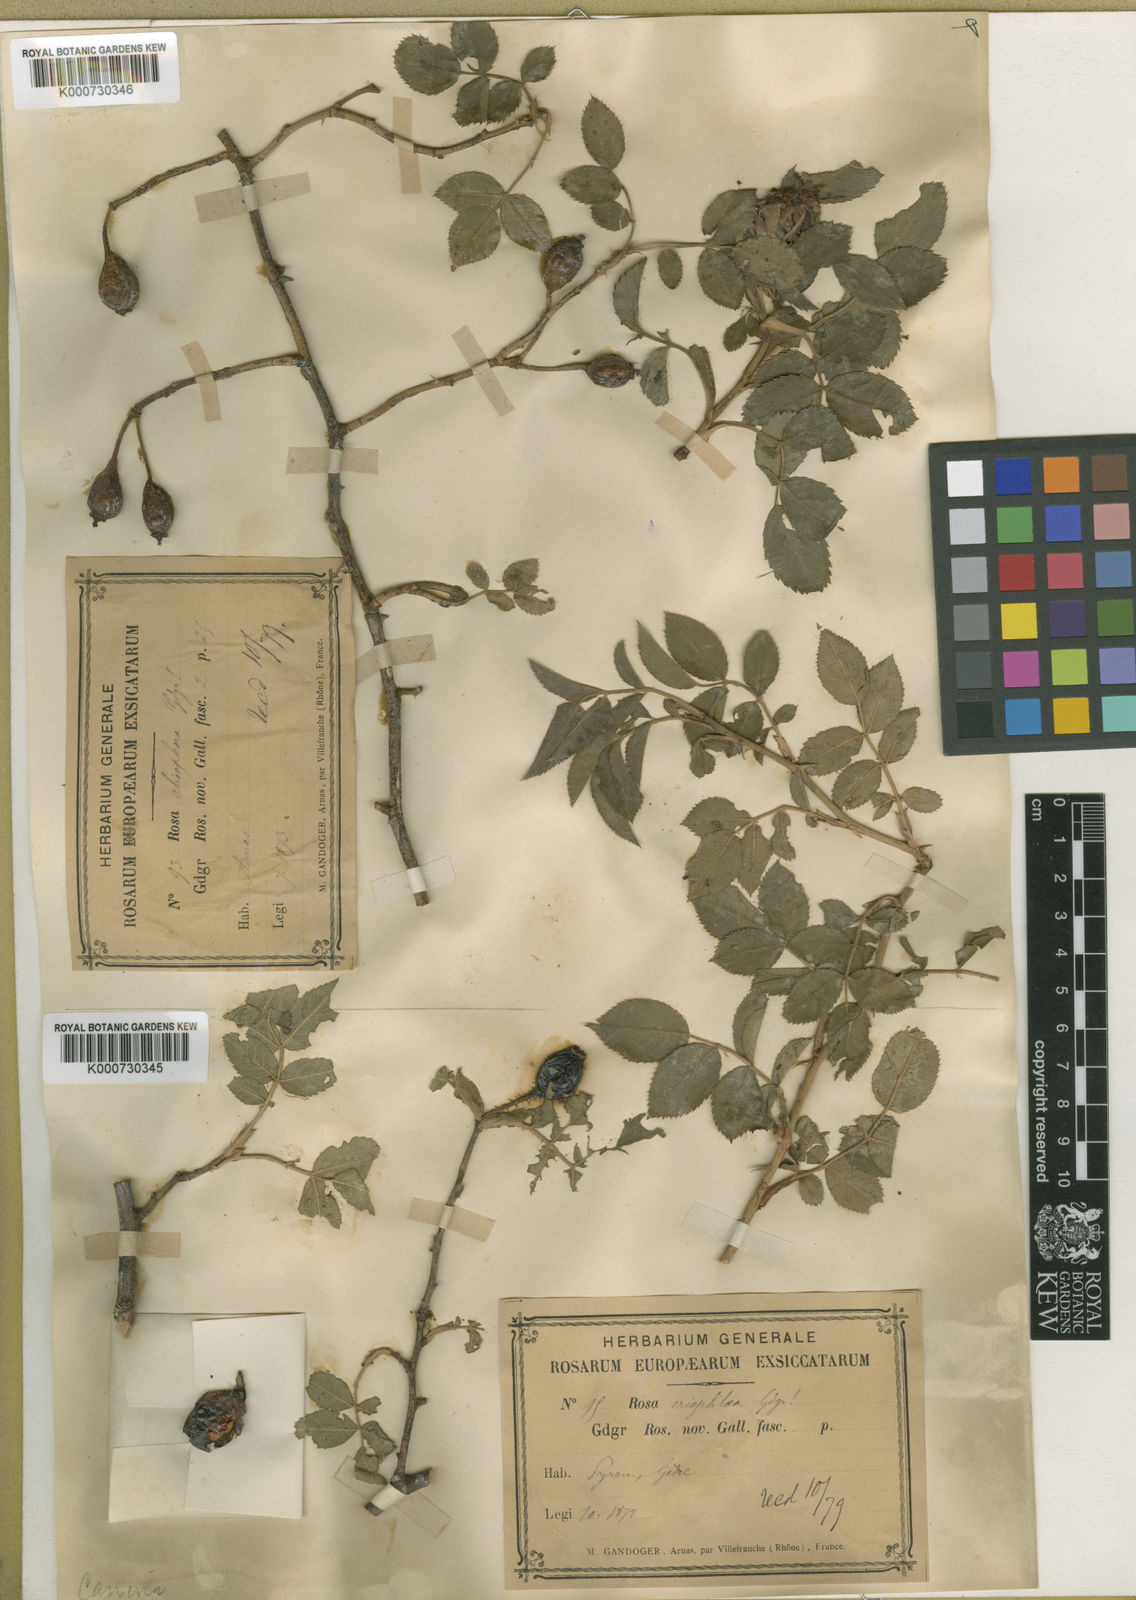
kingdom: Plantae
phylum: Tracheophyta
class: Magnoliopsida
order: Rosales
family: Rosaceae
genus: Rosa
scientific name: Rosa canina
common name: Dog rose
